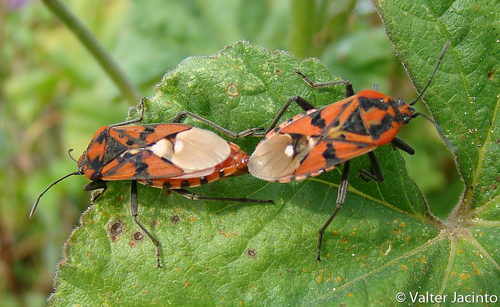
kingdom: Animalia
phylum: Arthropoda
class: Insecta
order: Hemiptera
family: Lygaeidae
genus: Spilostethus
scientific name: Spilostethus pandurus
